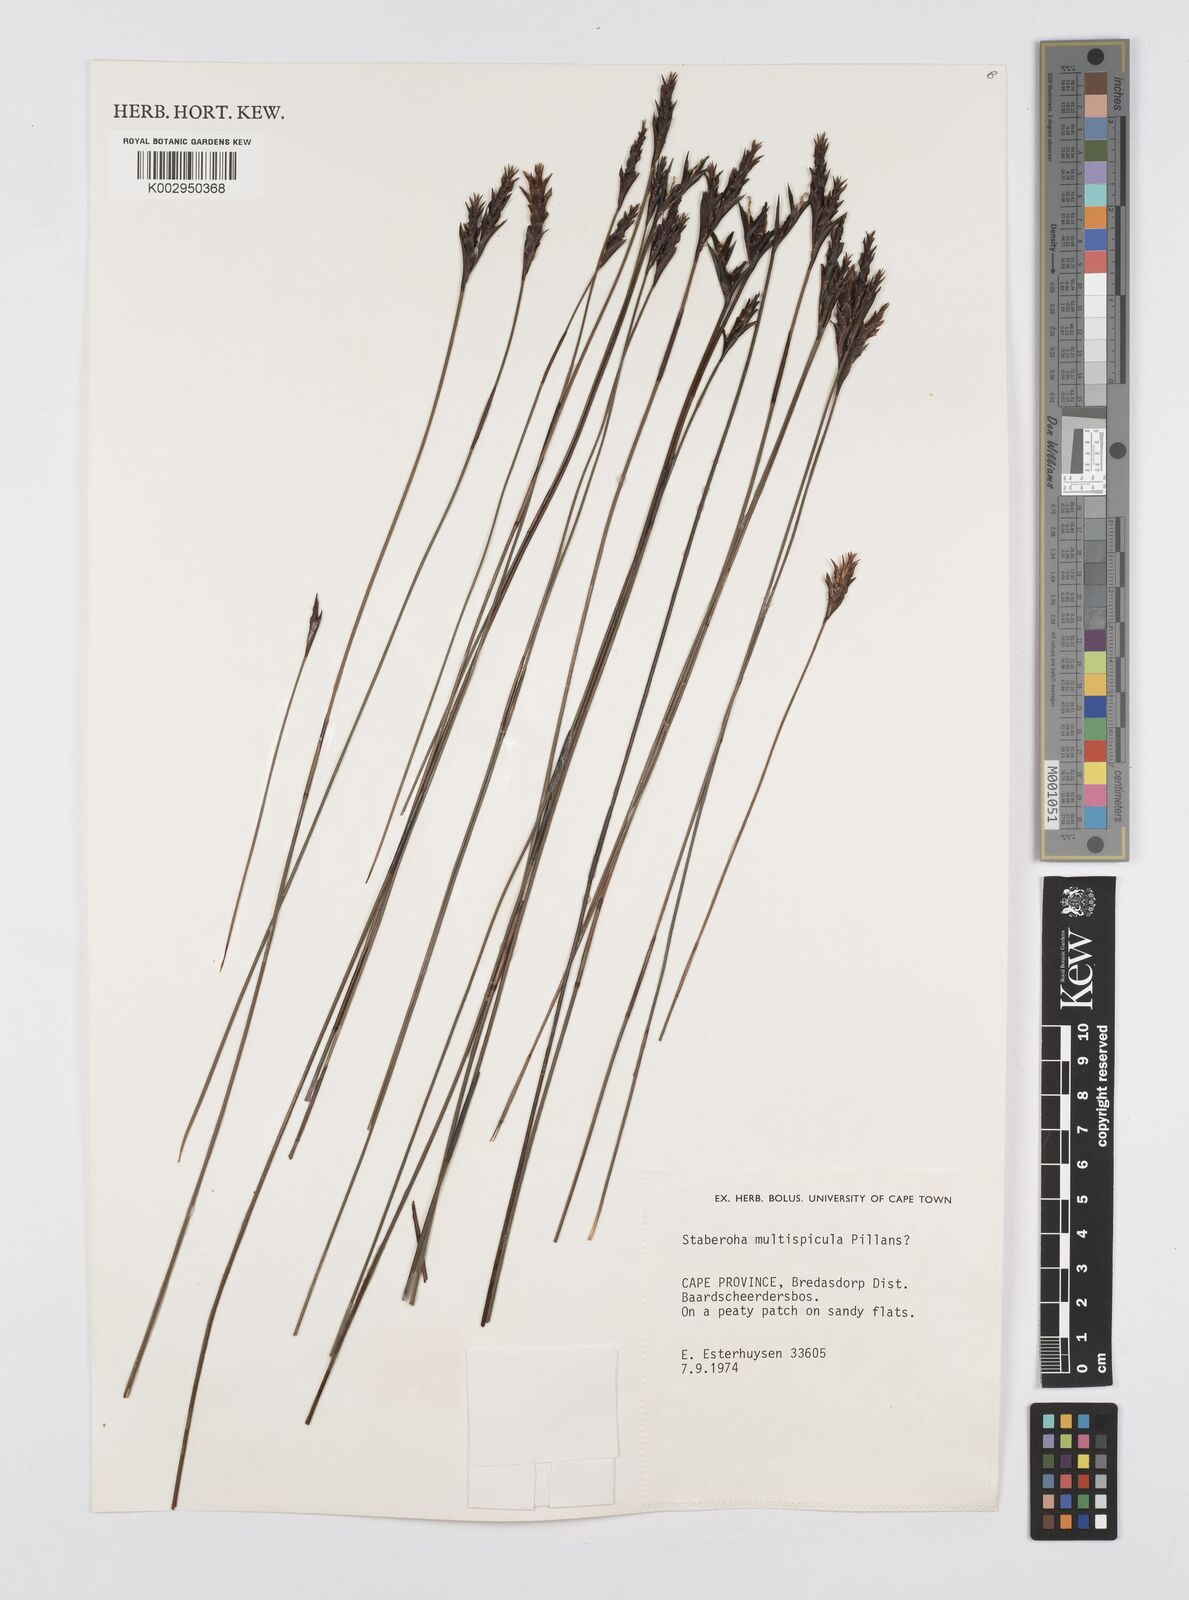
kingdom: Plantae
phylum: Tracheophyta
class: Liliopsida
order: Poales
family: Restionaceae
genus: Staberoha
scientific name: Staberoha multispicula
